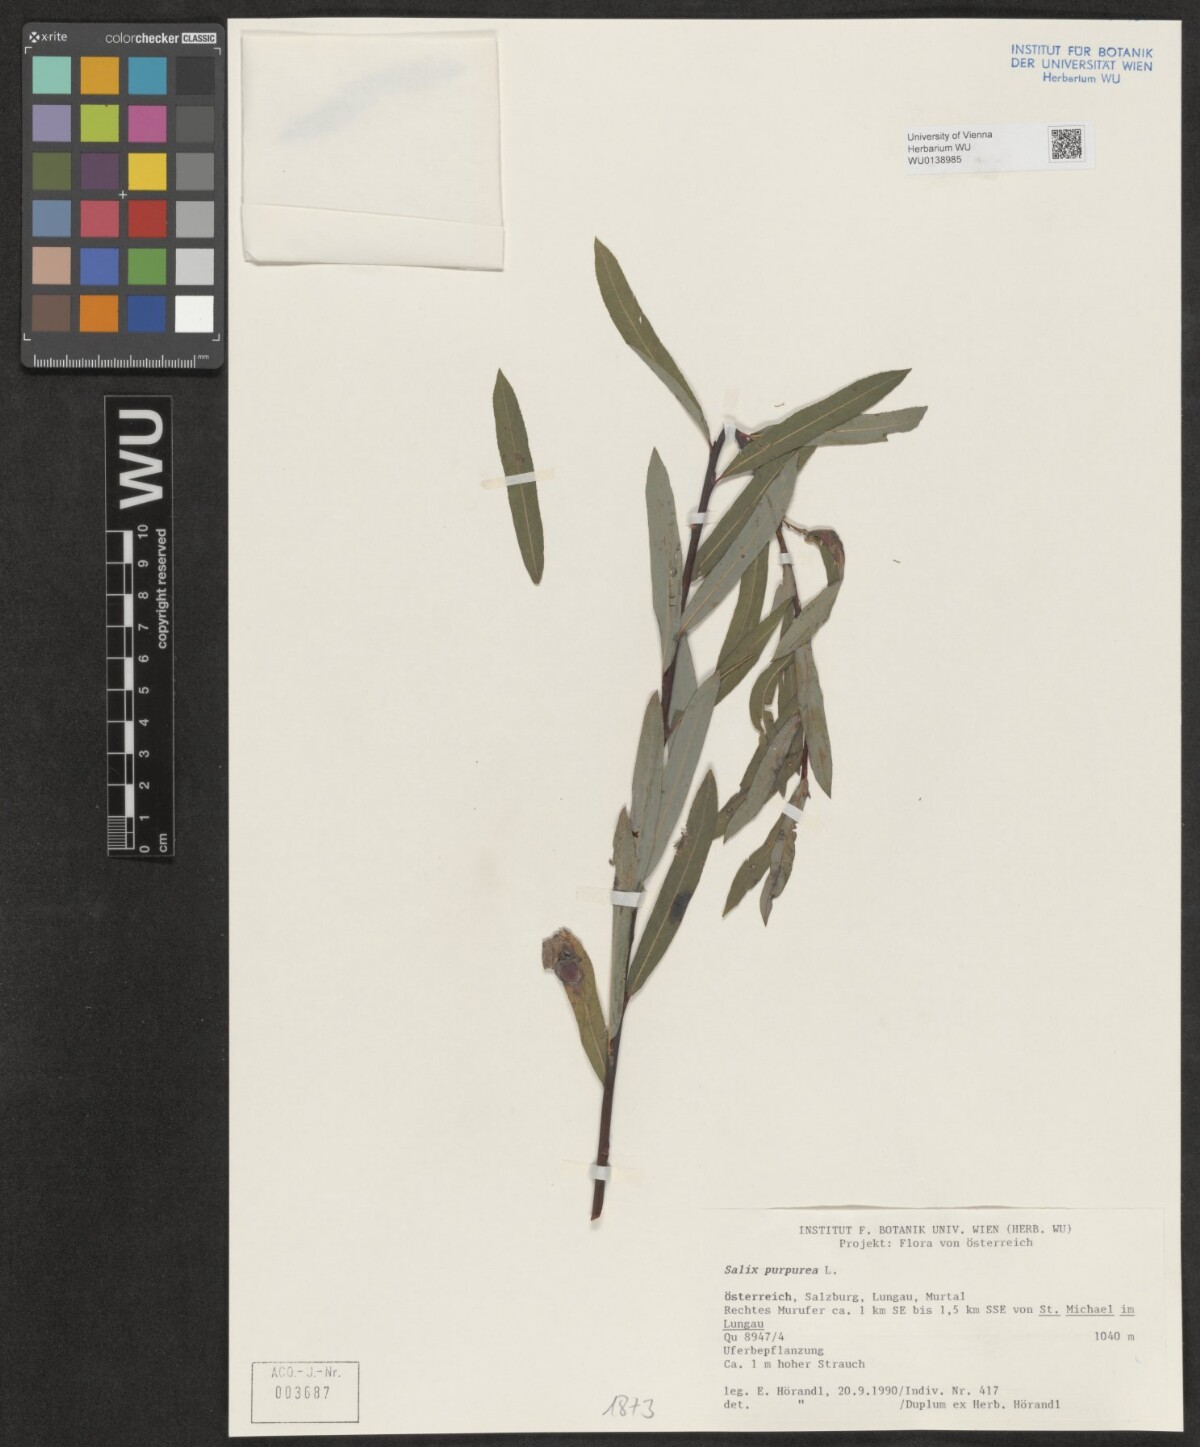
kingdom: Plantae
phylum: Tracheophyta
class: Magnoliopsida
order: Malpighiales
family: Salicaceae
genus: Salix
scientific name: Salix purpurea
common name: Purple willow
